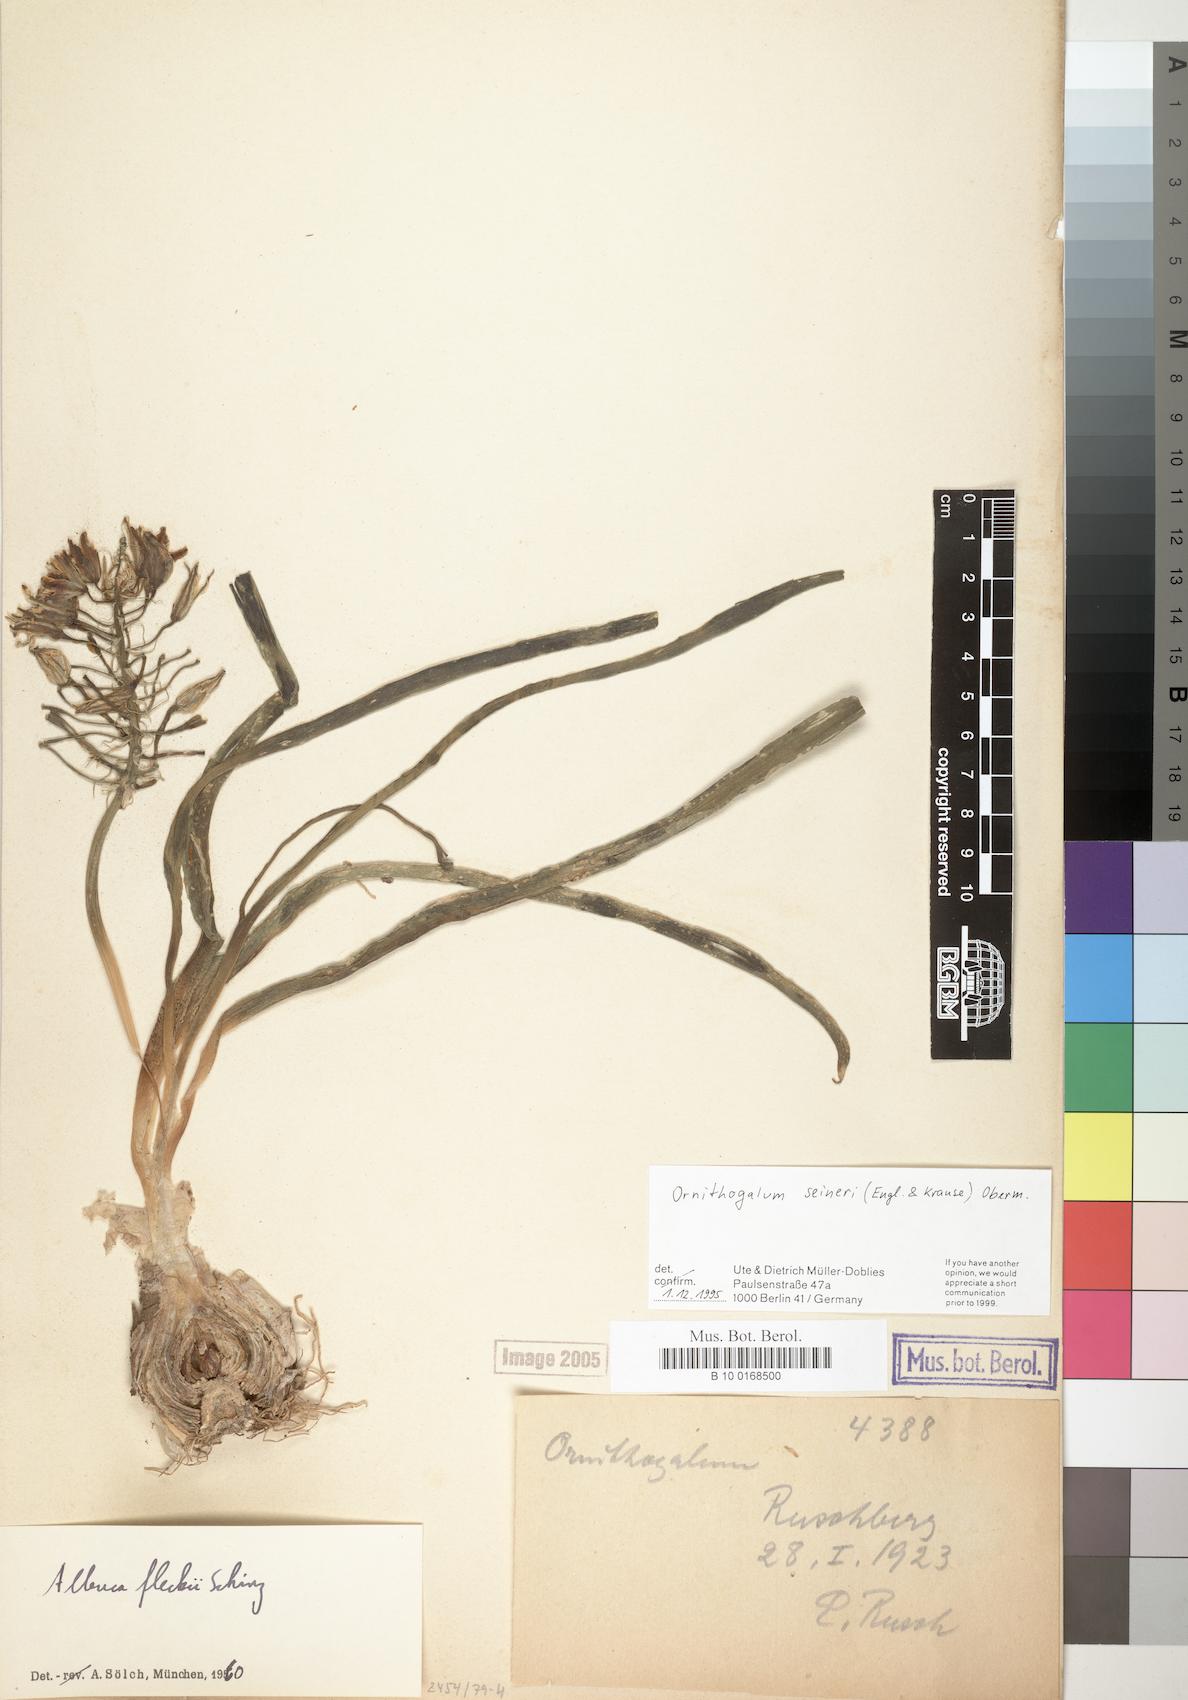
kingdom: Plantae
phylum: Tracheophyta
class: Liliopsida
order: Asparagales
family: Asparagaceae
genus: Albuca
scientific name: Albuca seineri
